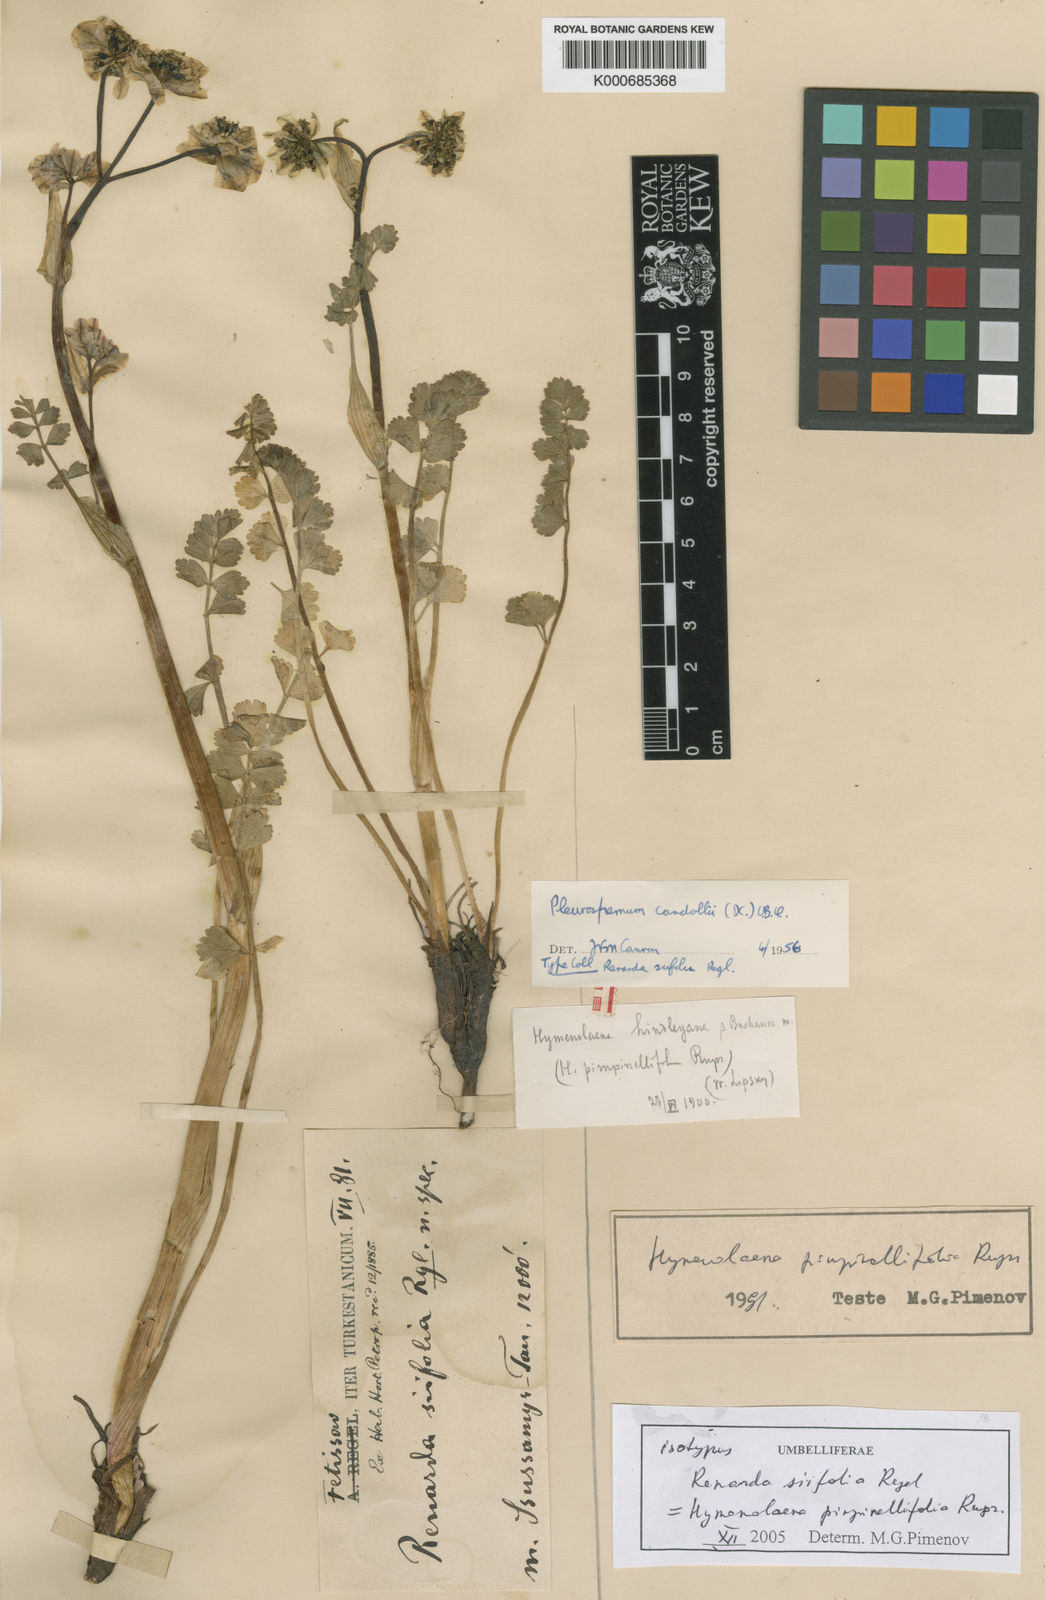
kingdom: Plantae
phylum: Tracheophyta
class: Magnoliopsida
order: Apiales
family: Apiaceae
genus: Hymenolaena
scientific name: Hymenolaena
